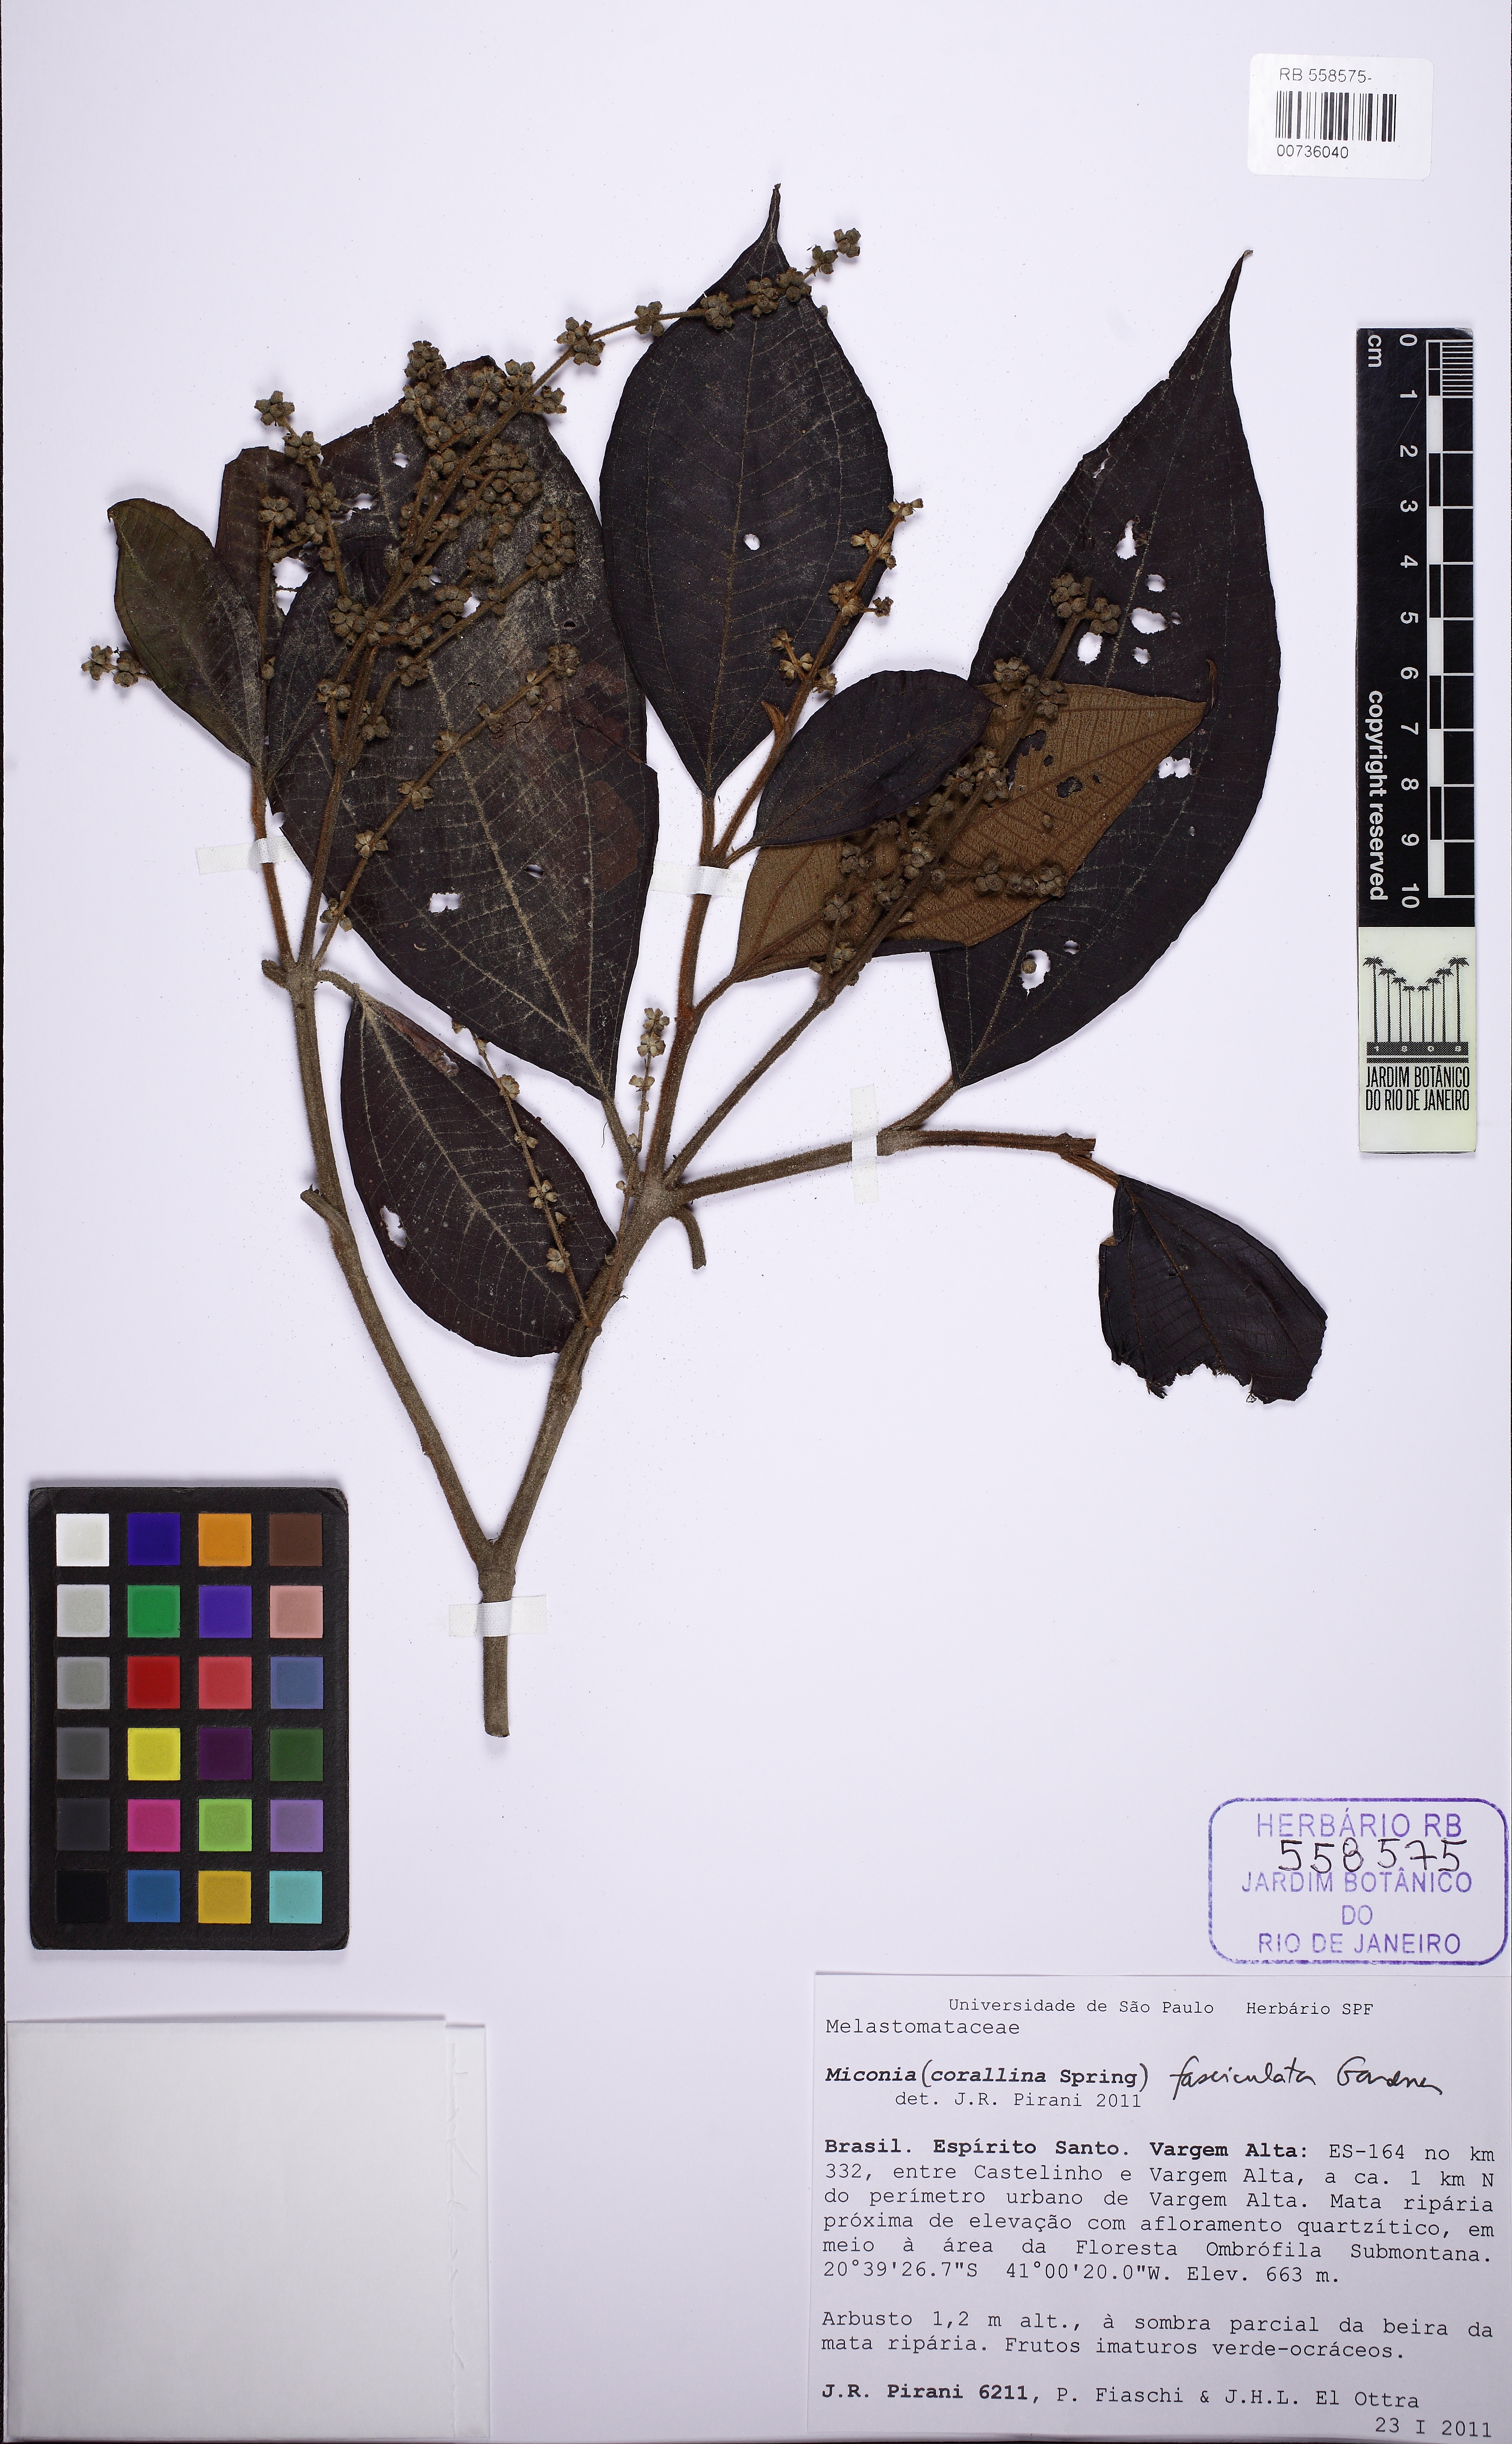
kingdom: Plantae
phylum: Tracheophyta
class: Magnoliopsida
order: Myrtales
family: Melastomataceae
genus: Miconia
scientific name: Miconia corallina
